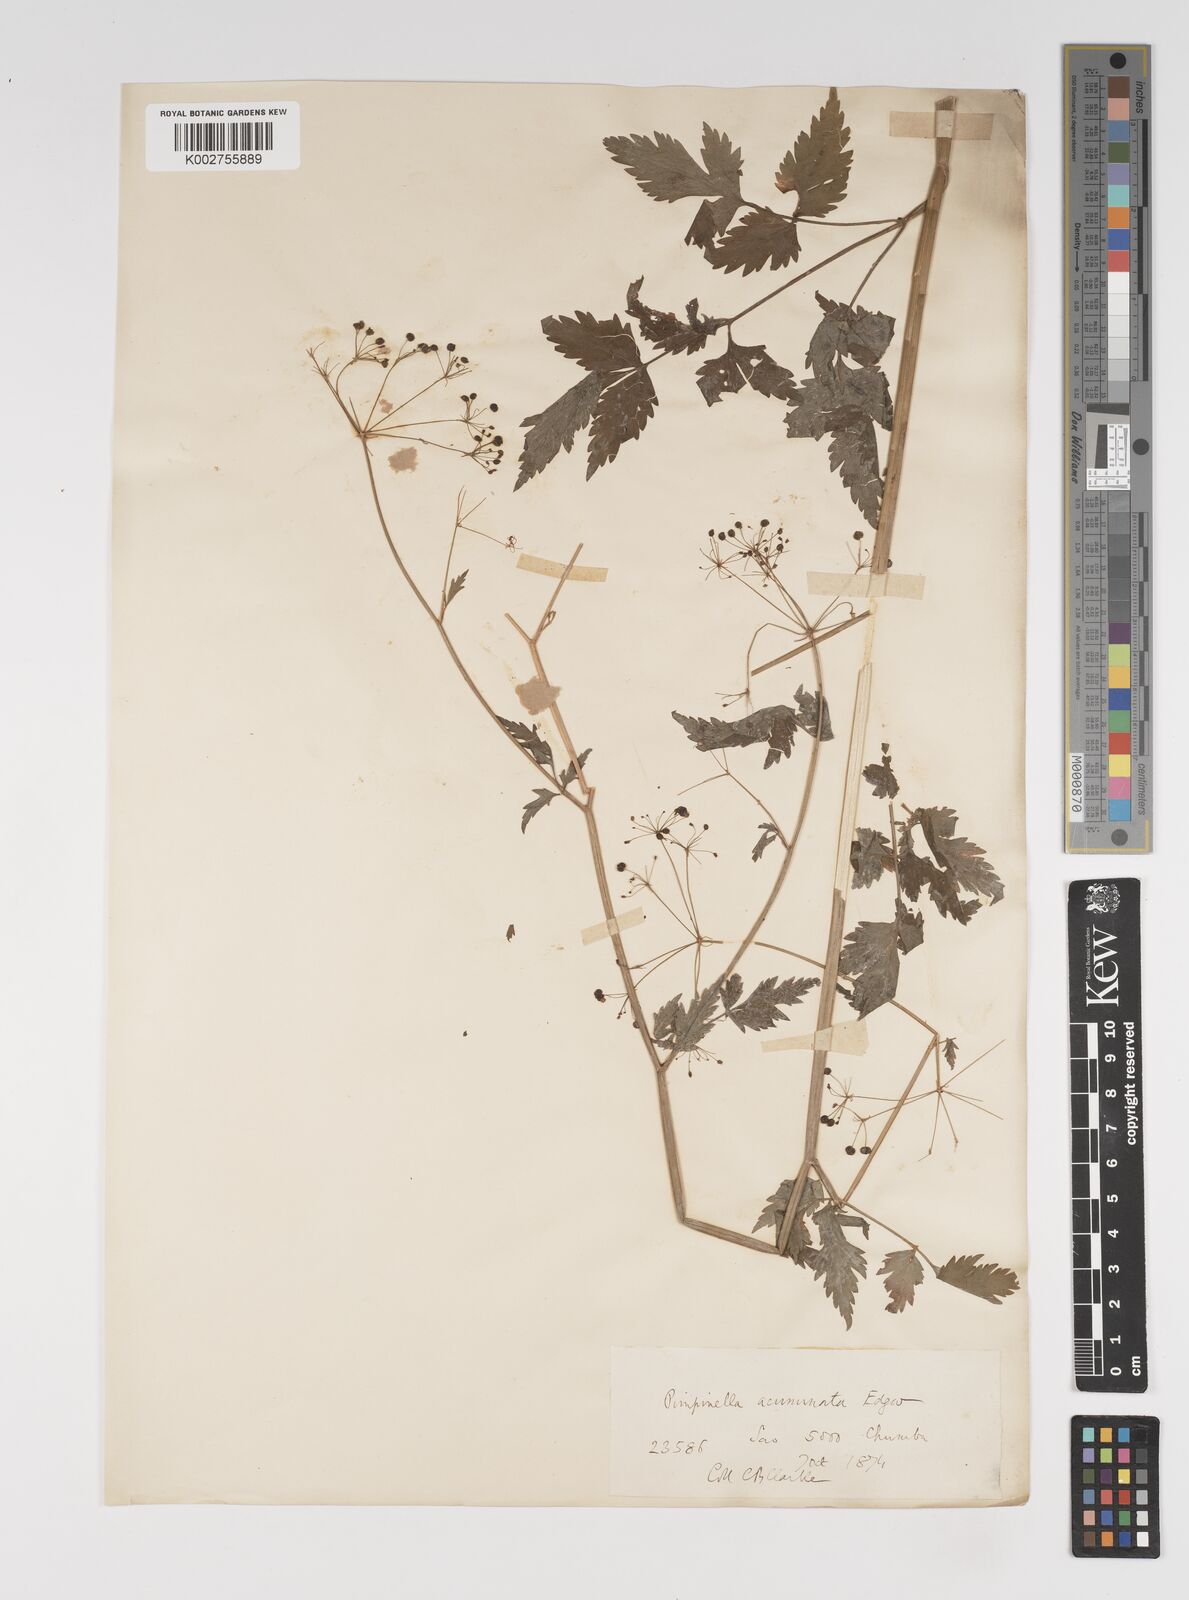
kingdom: Plantae
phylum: Tracheophyta
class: Magnoliopsida
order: Apiales
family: Apiaceae
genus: Pimpinella
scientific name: Pimpinella acuminata
